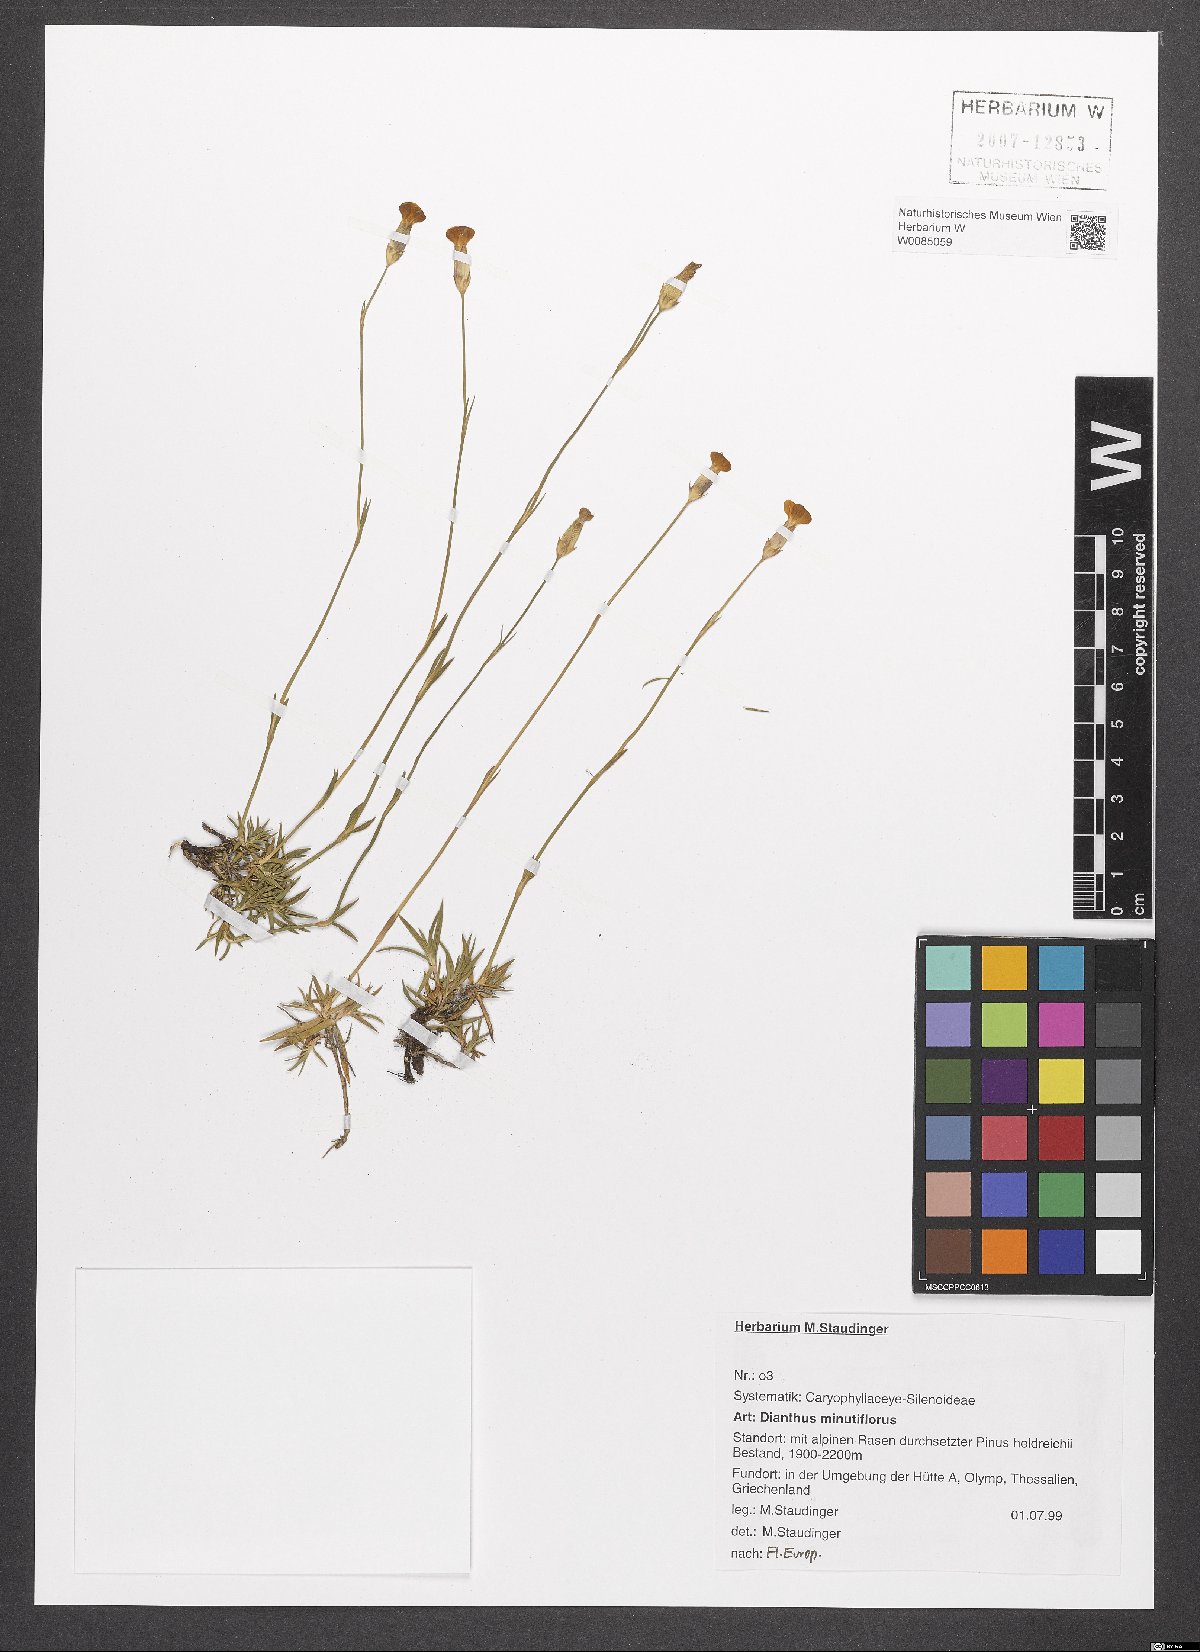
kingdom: Plantae
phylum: Tracheophyta
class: Magnoliopsida
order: Caryophyllales
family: Caryophyllaceae
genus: Dianthus
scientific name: Dianthus integer
